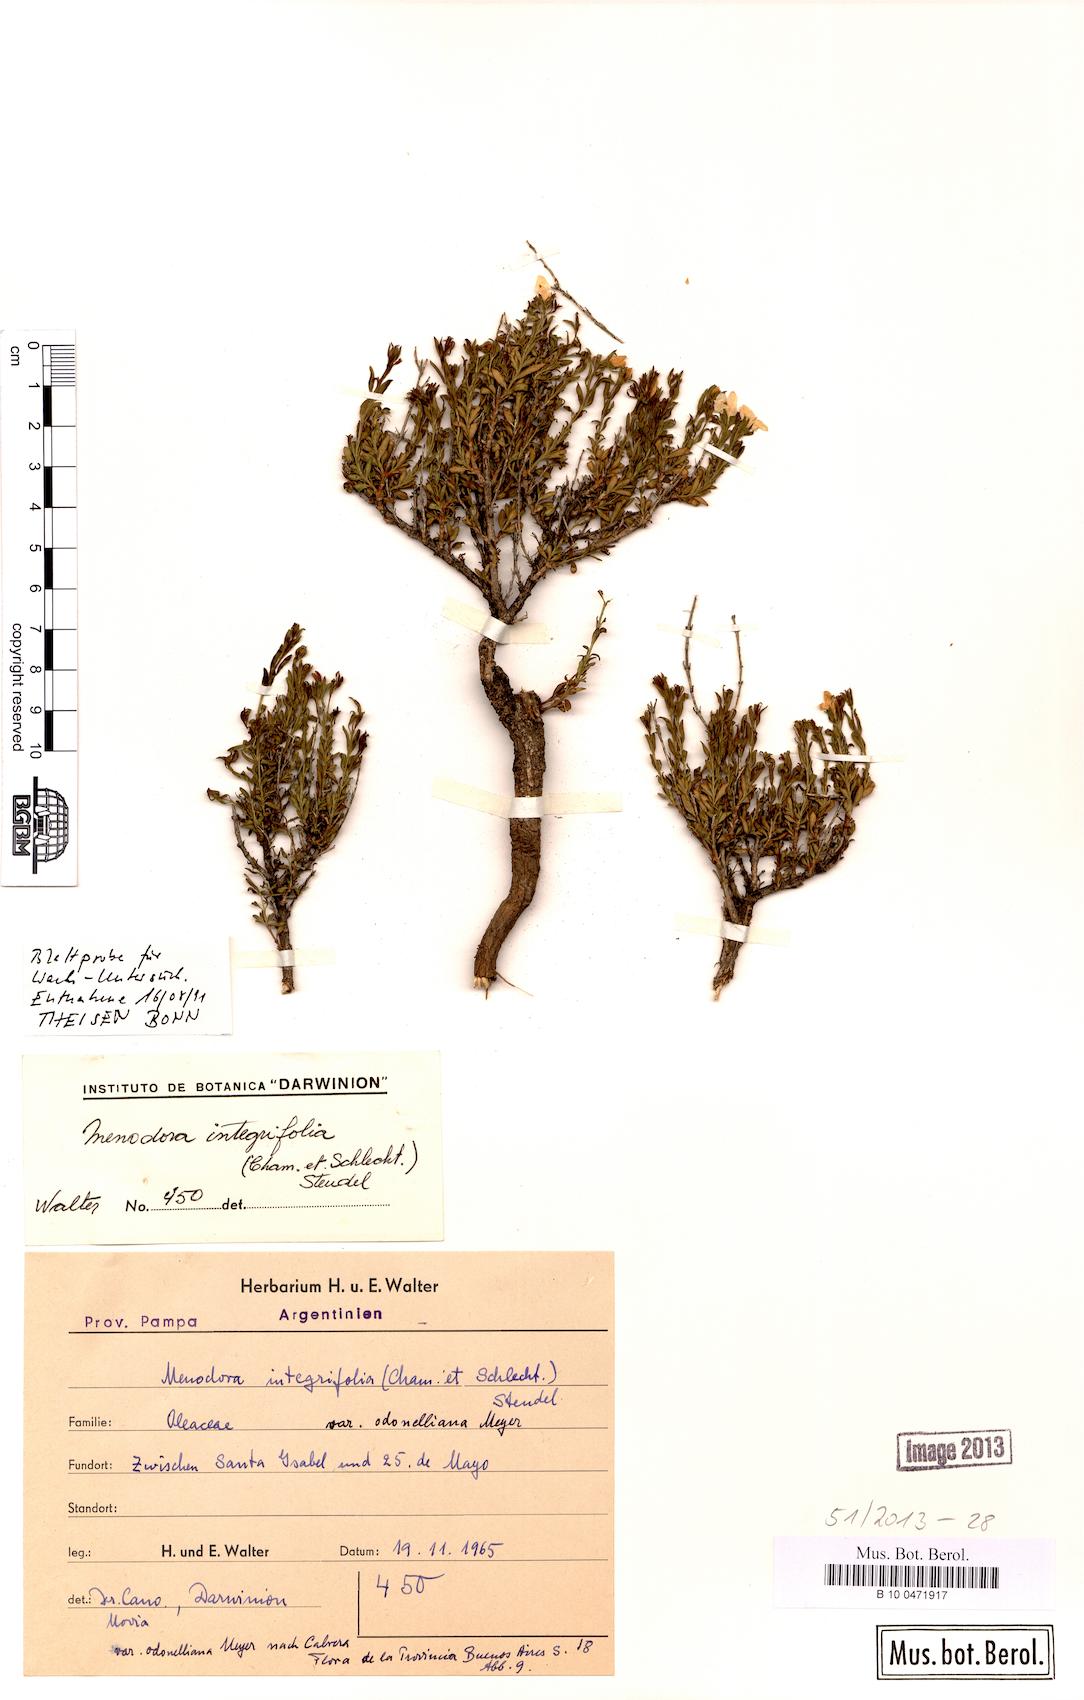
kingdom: Plantae
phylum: Tracheophyta
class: Magnoliopsida
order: Lamiales
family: Oleaceae
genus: Menodora
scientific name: Menodora integrifolia
